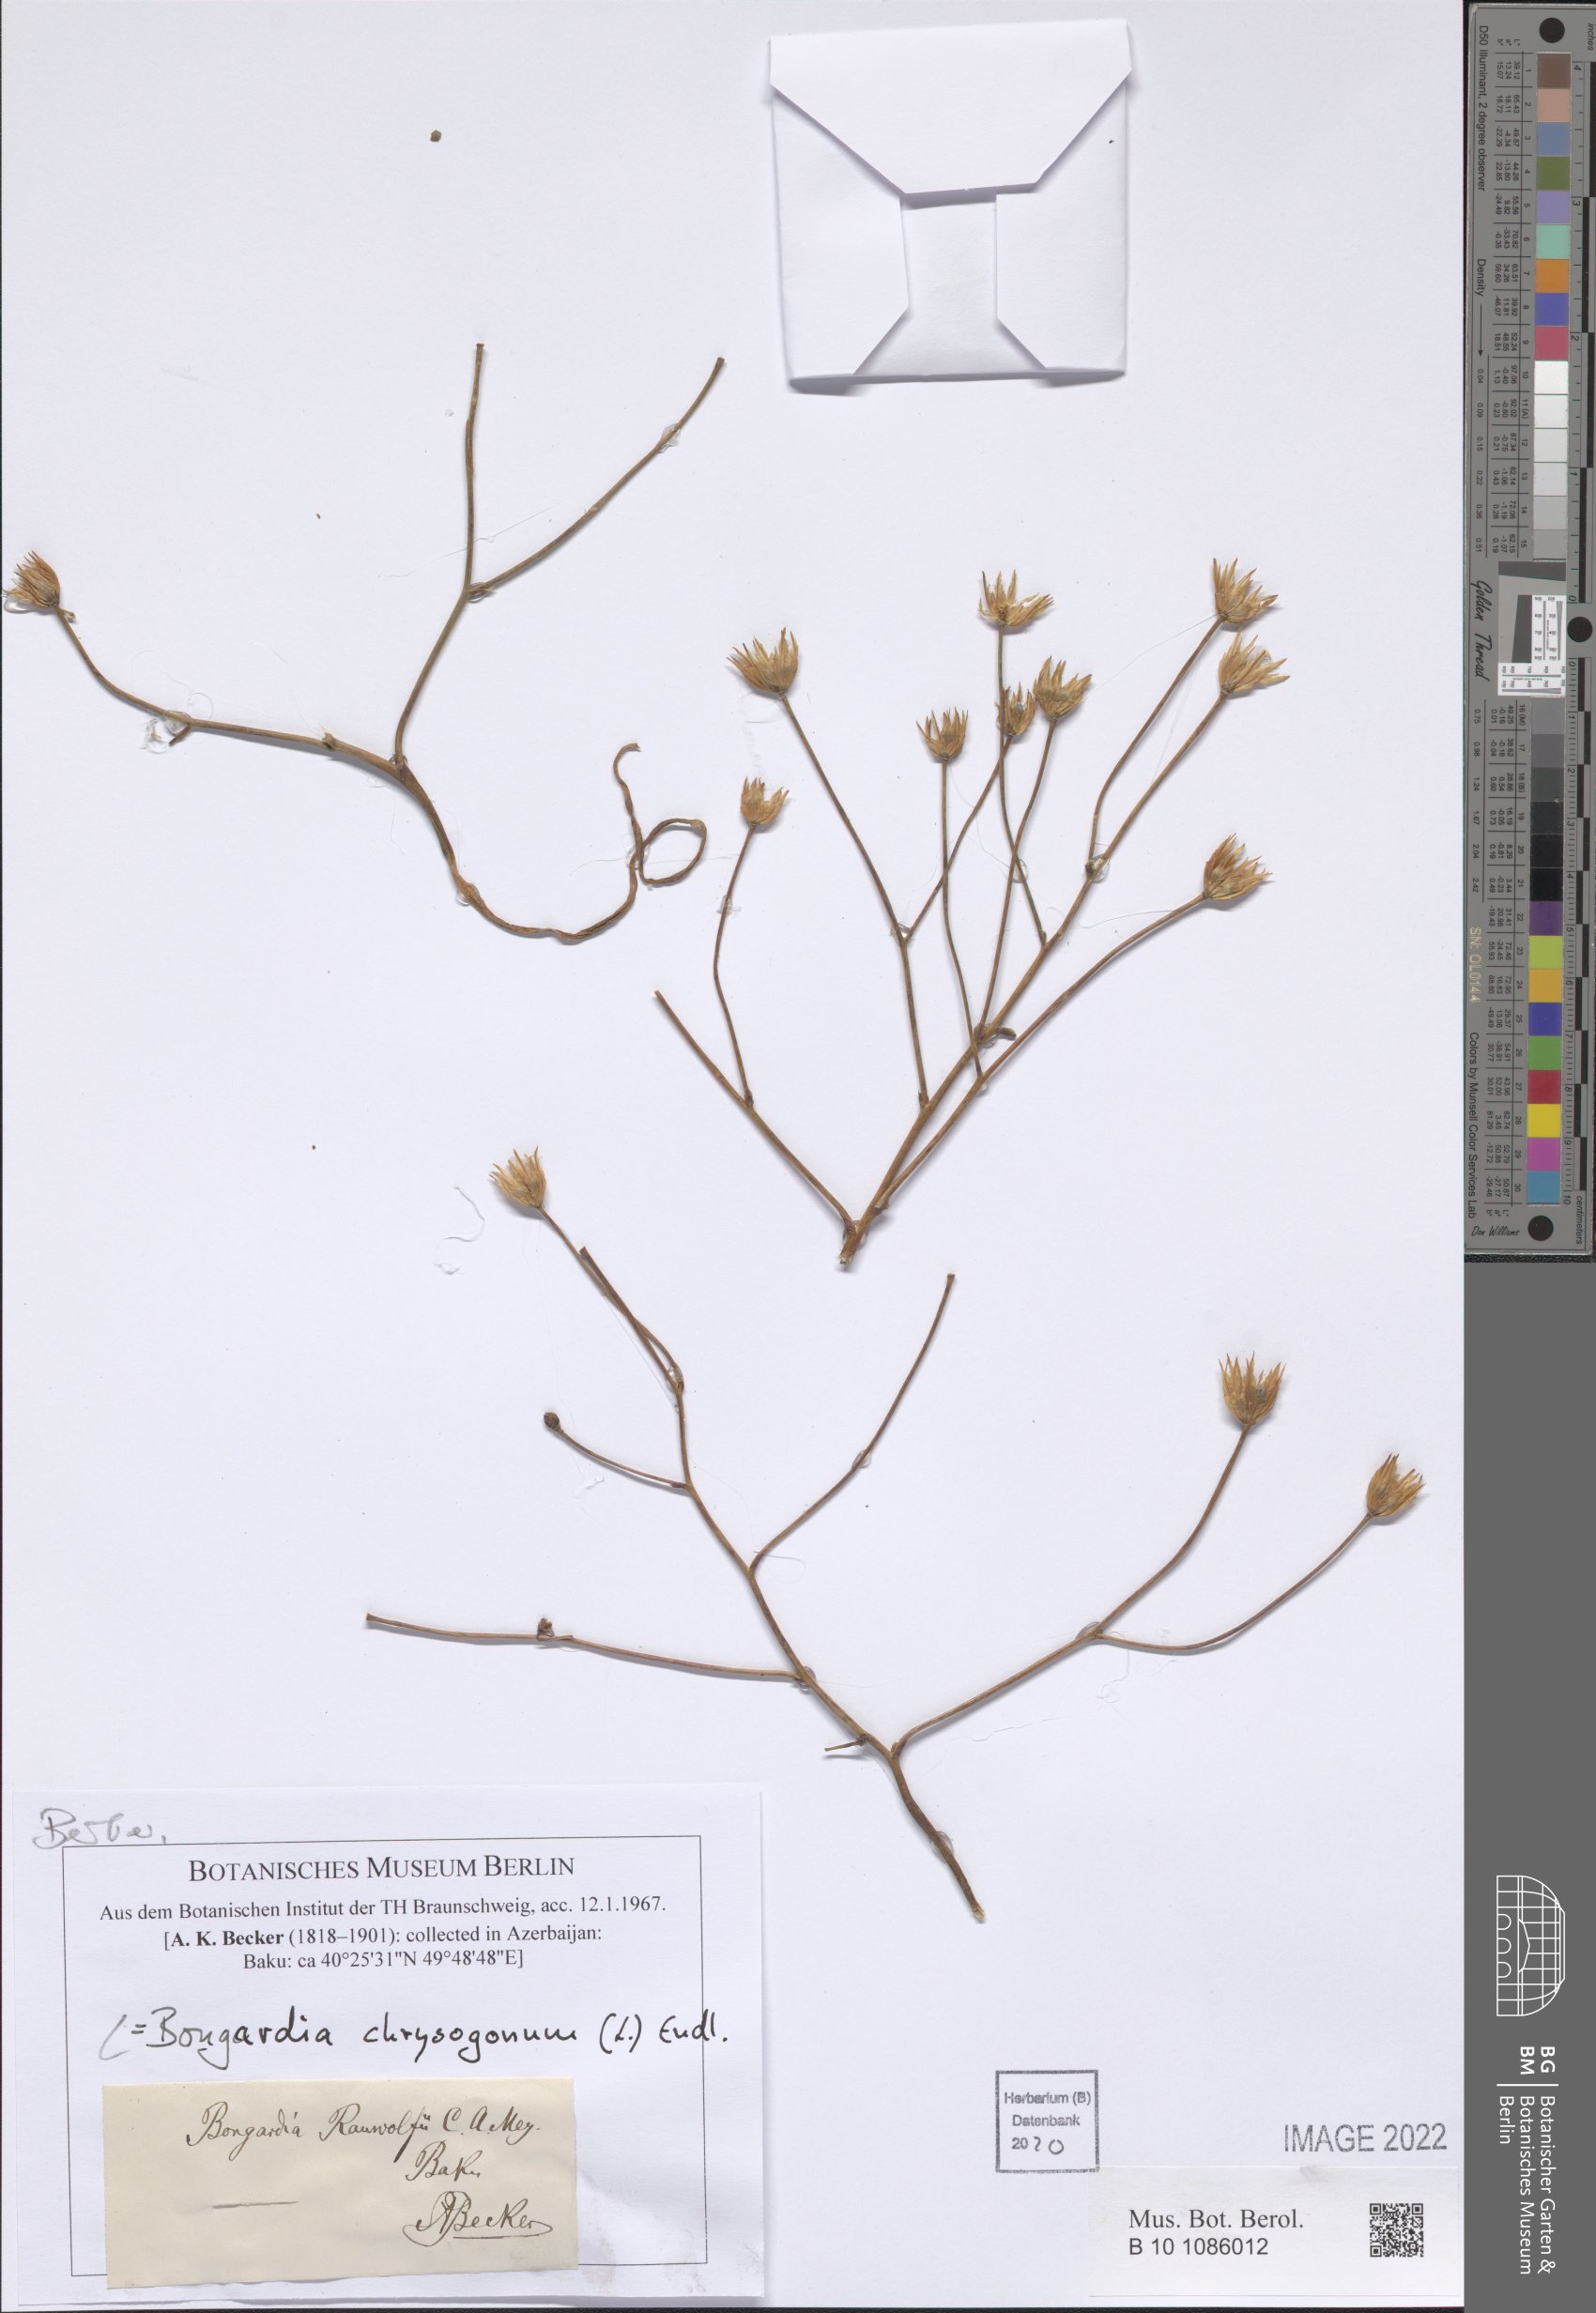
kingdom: Plantae
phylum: Tracheophyta
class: Magnoliopsida
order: Ranunculales
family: Berberidaceae
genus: Bongardia
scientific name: Bongardia chrysogonum
